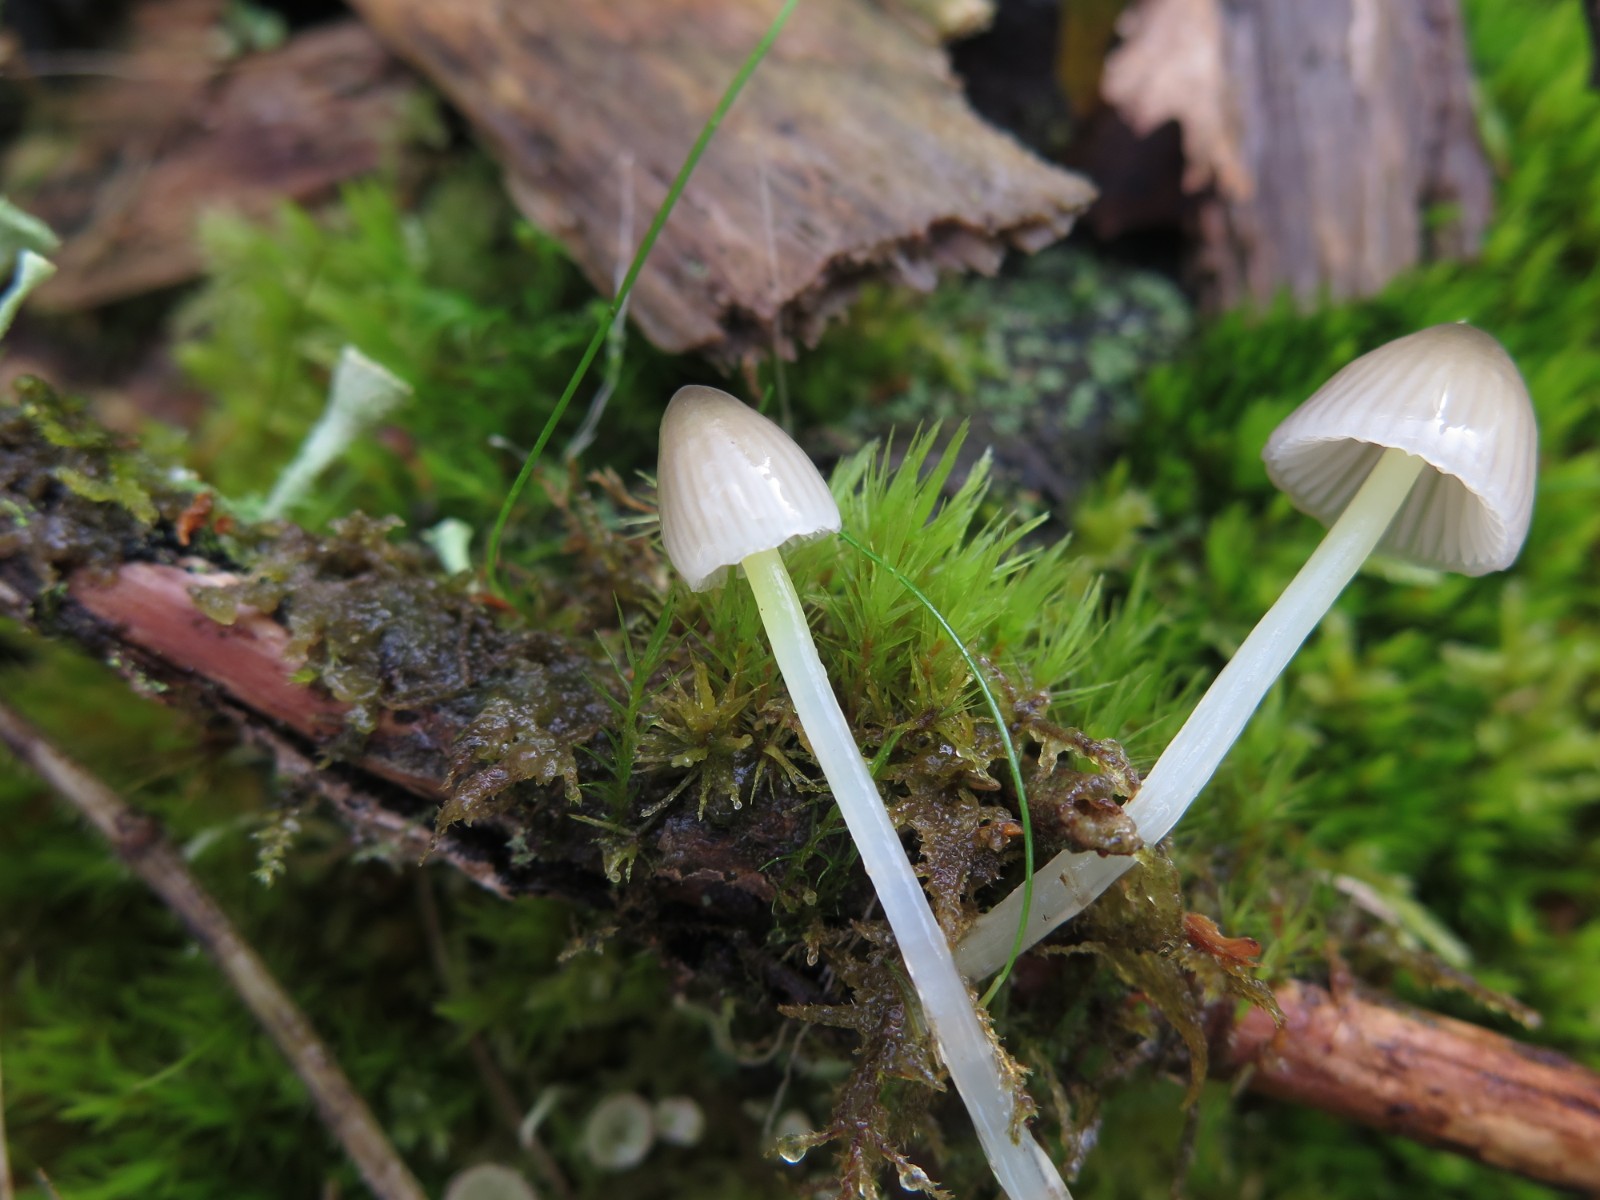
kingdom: Fungi
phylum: Basidiomycota
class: Agaricomycetes
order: Agaricales
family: Mycenaceae
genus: Mycena
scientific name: Mycena epipterygia
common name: gulstokket huesvamp
